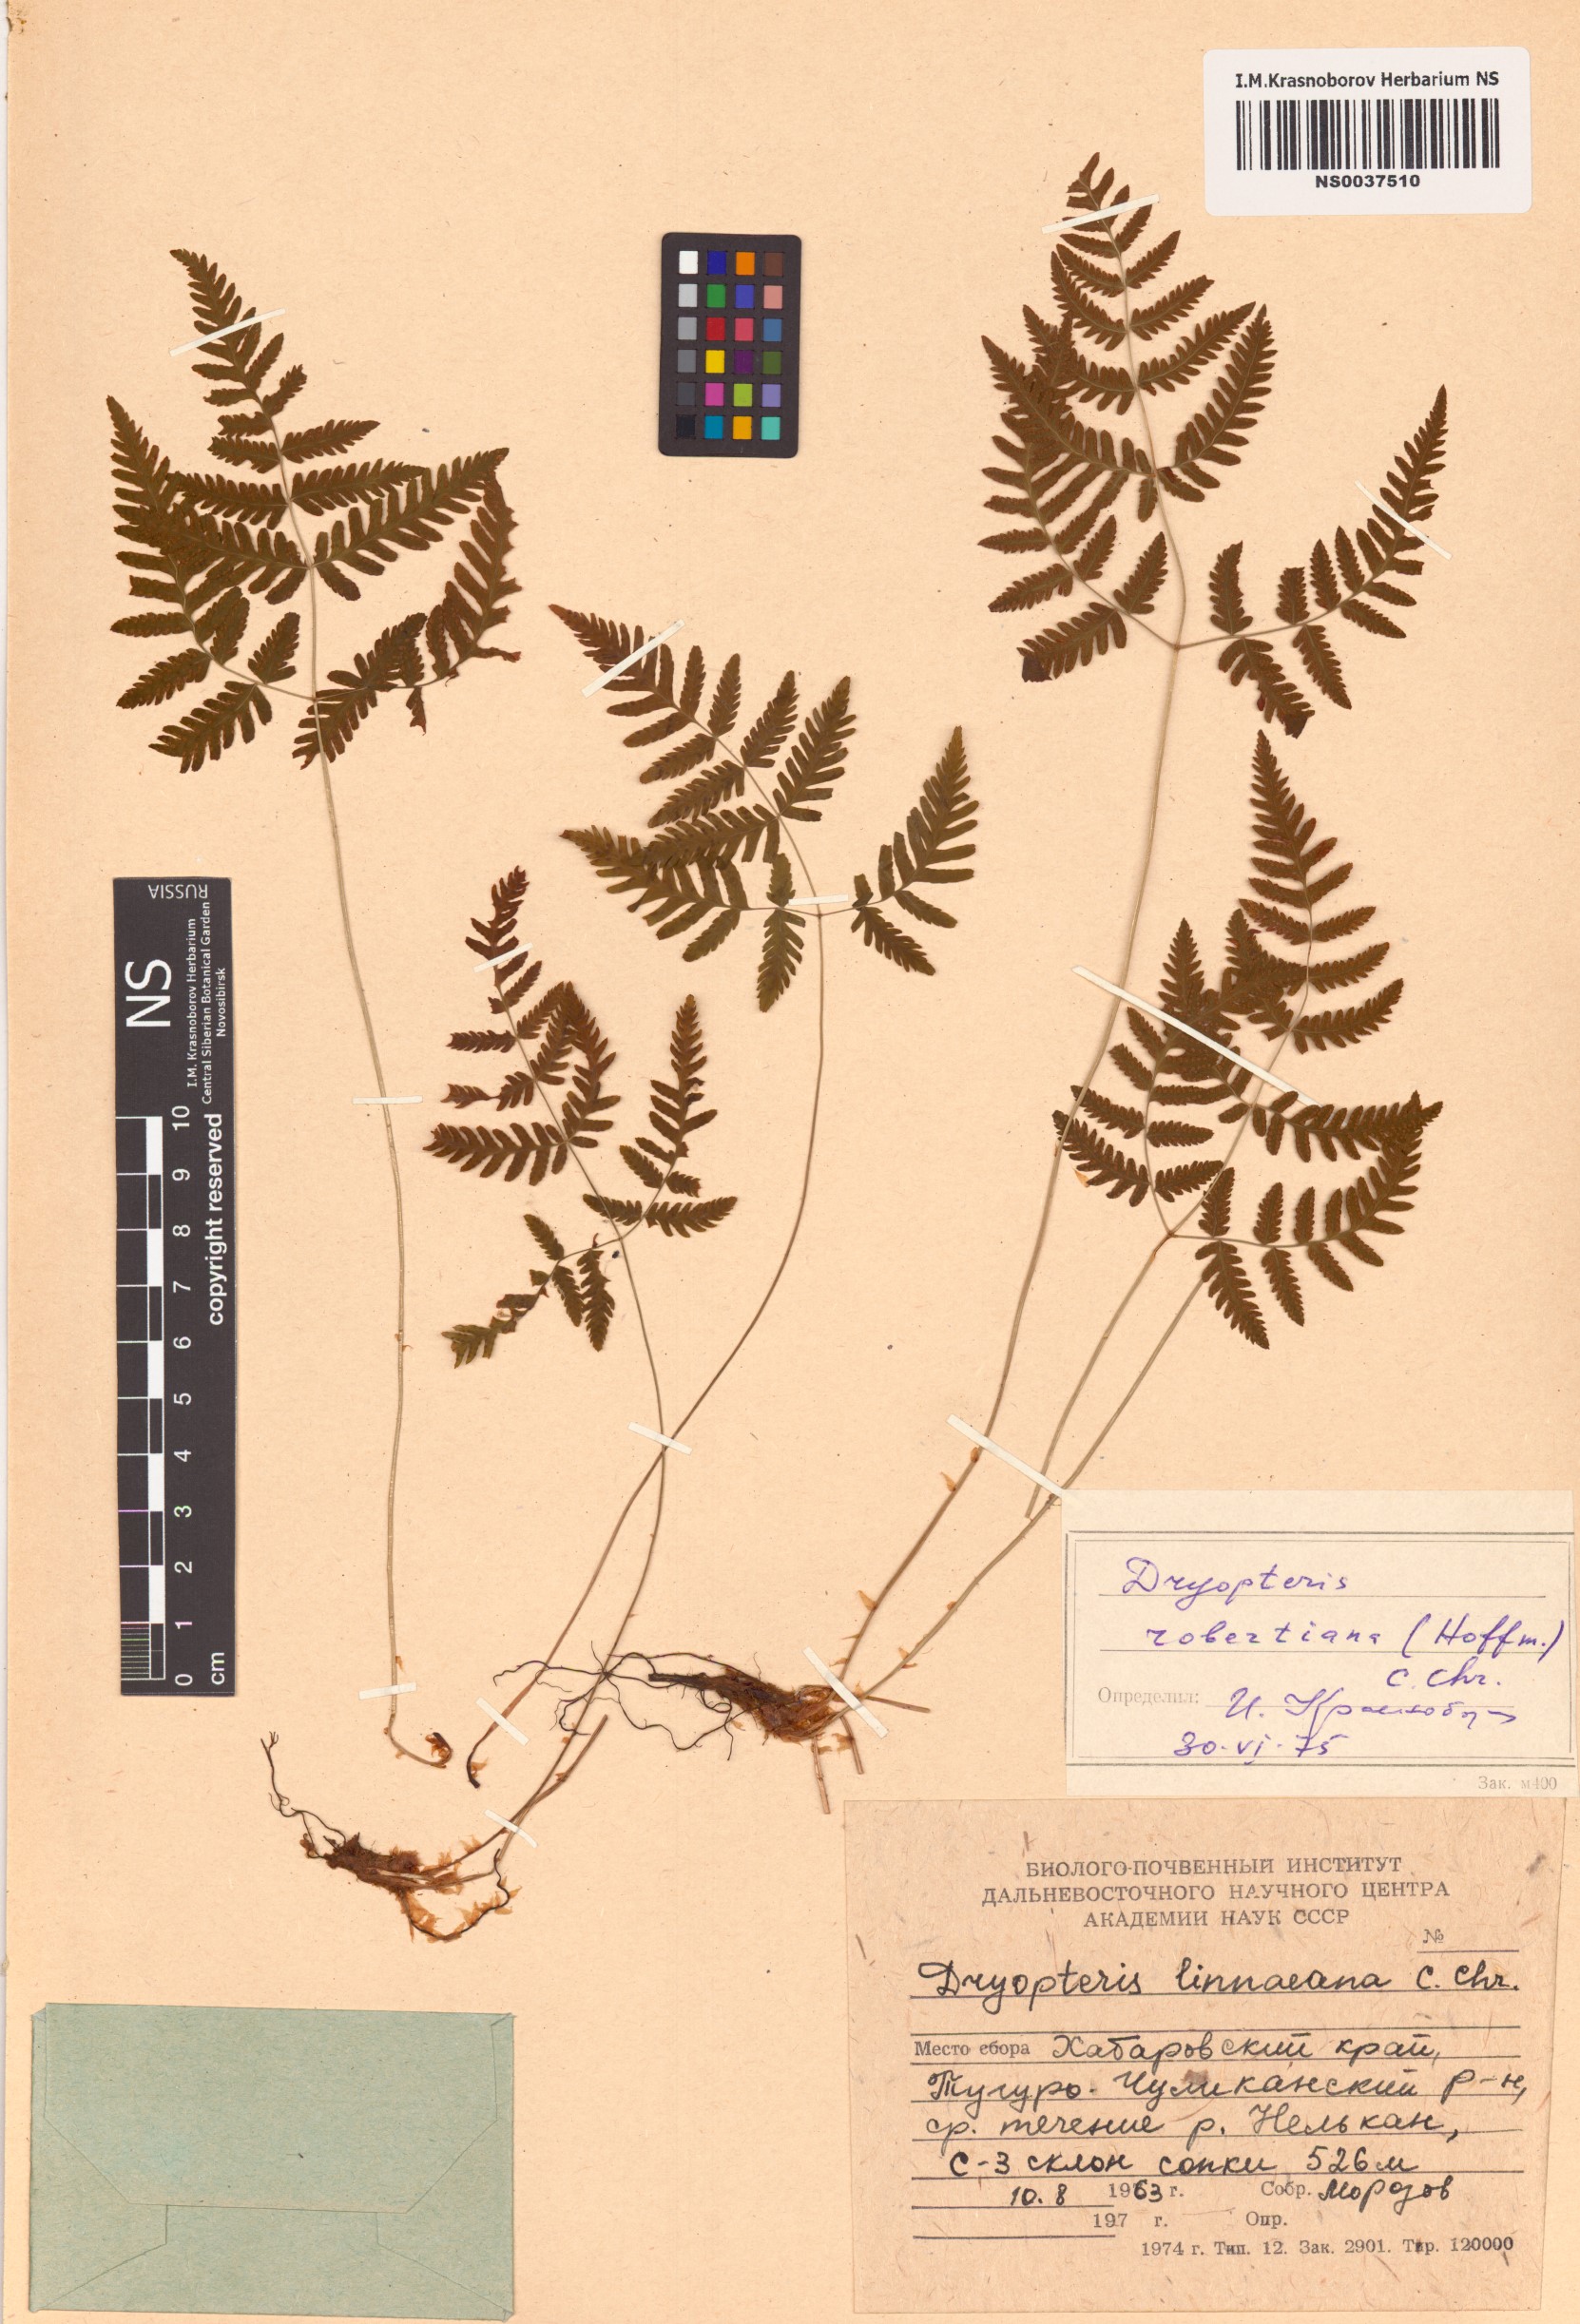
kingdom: Plantae
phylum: Tracheophyta
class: Polypodiopsida
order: Polypodiales
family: Cystopteridaceae
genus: Gymnocarpium
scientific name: Gymnocarpium robertianum
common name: Limestone fern
